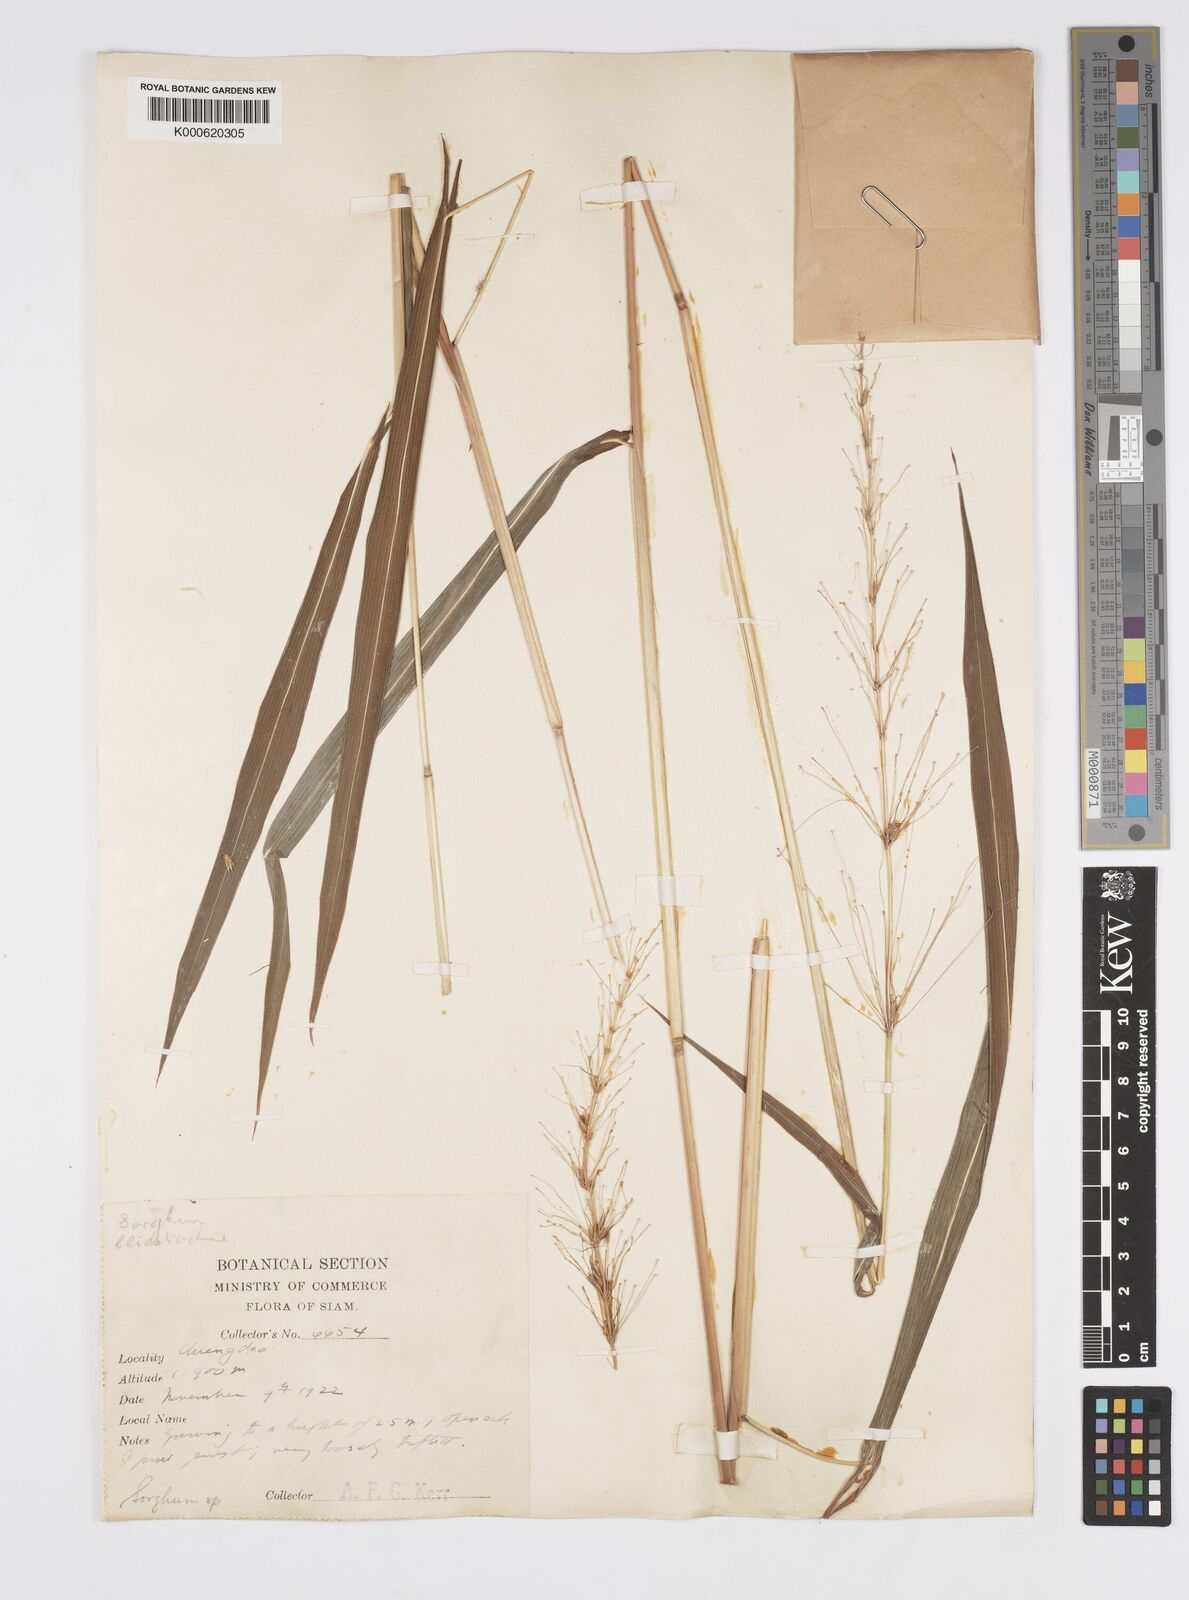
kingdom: Plantae
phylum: Tracheophyta
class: Liliopsida
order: Poales
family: Poaceae
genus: Spodiopogon
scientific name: Spodiopogon lacei
